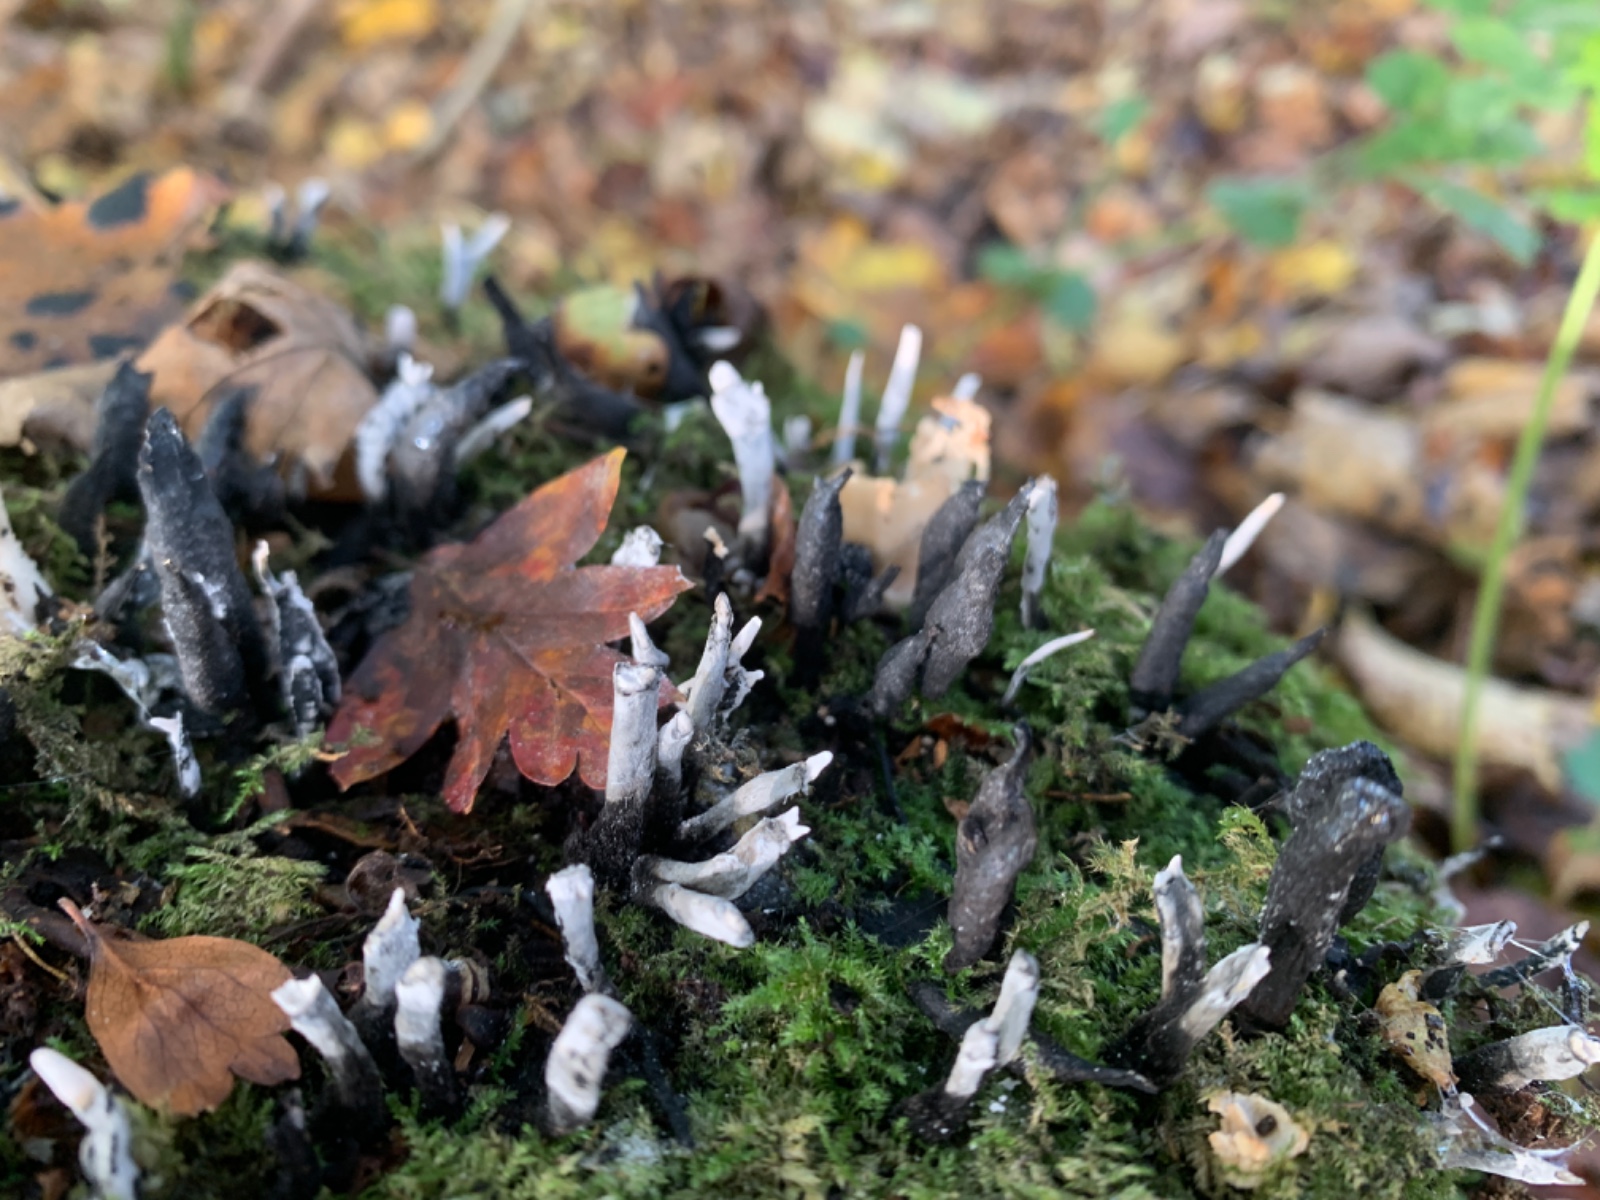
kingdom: Fungi
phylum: Ascomycota
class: Sordariomycetes
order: Xylariales
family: Xylariaceae
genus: Xylaria
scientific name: Xylaria hypoxylon
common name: grenet stødsvamp
